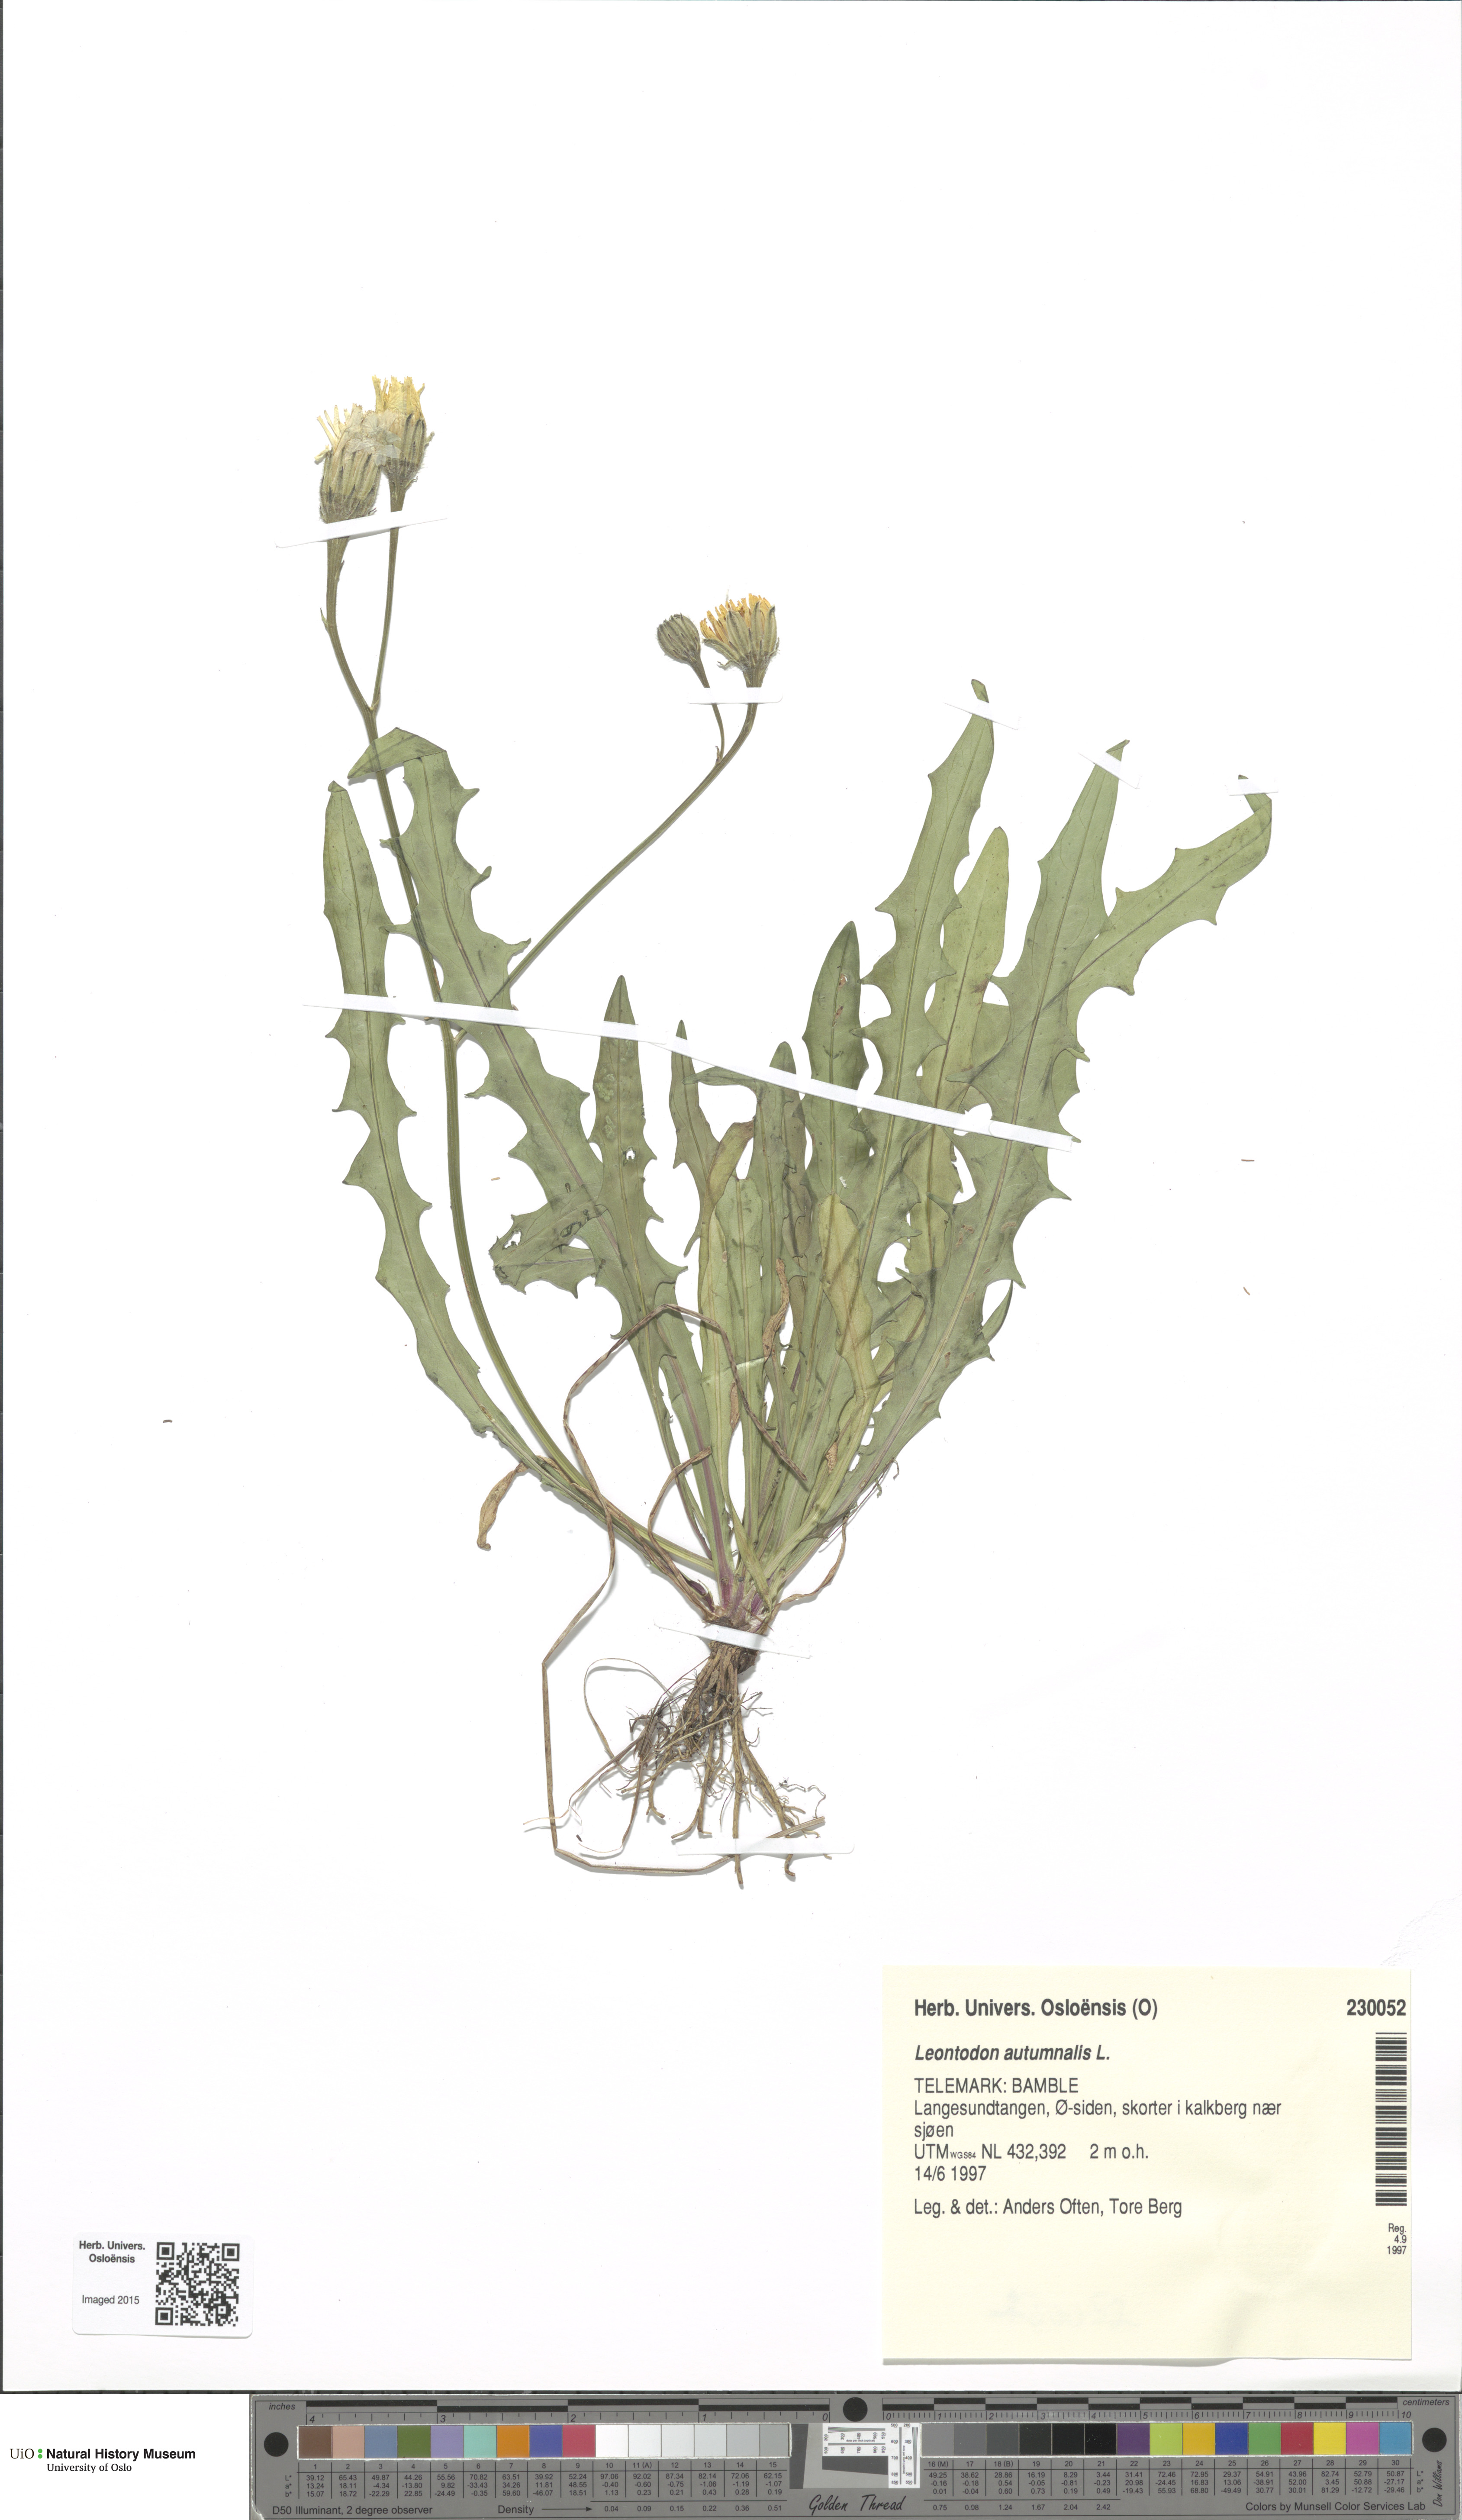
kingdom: Plantae
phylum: Tracheophyta
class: Magnoliopsida
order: Asterales
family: Asteraceae
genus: Scorzoneroides
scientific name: Scorzoneroides autumnalis
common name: Autumn hawkbit
